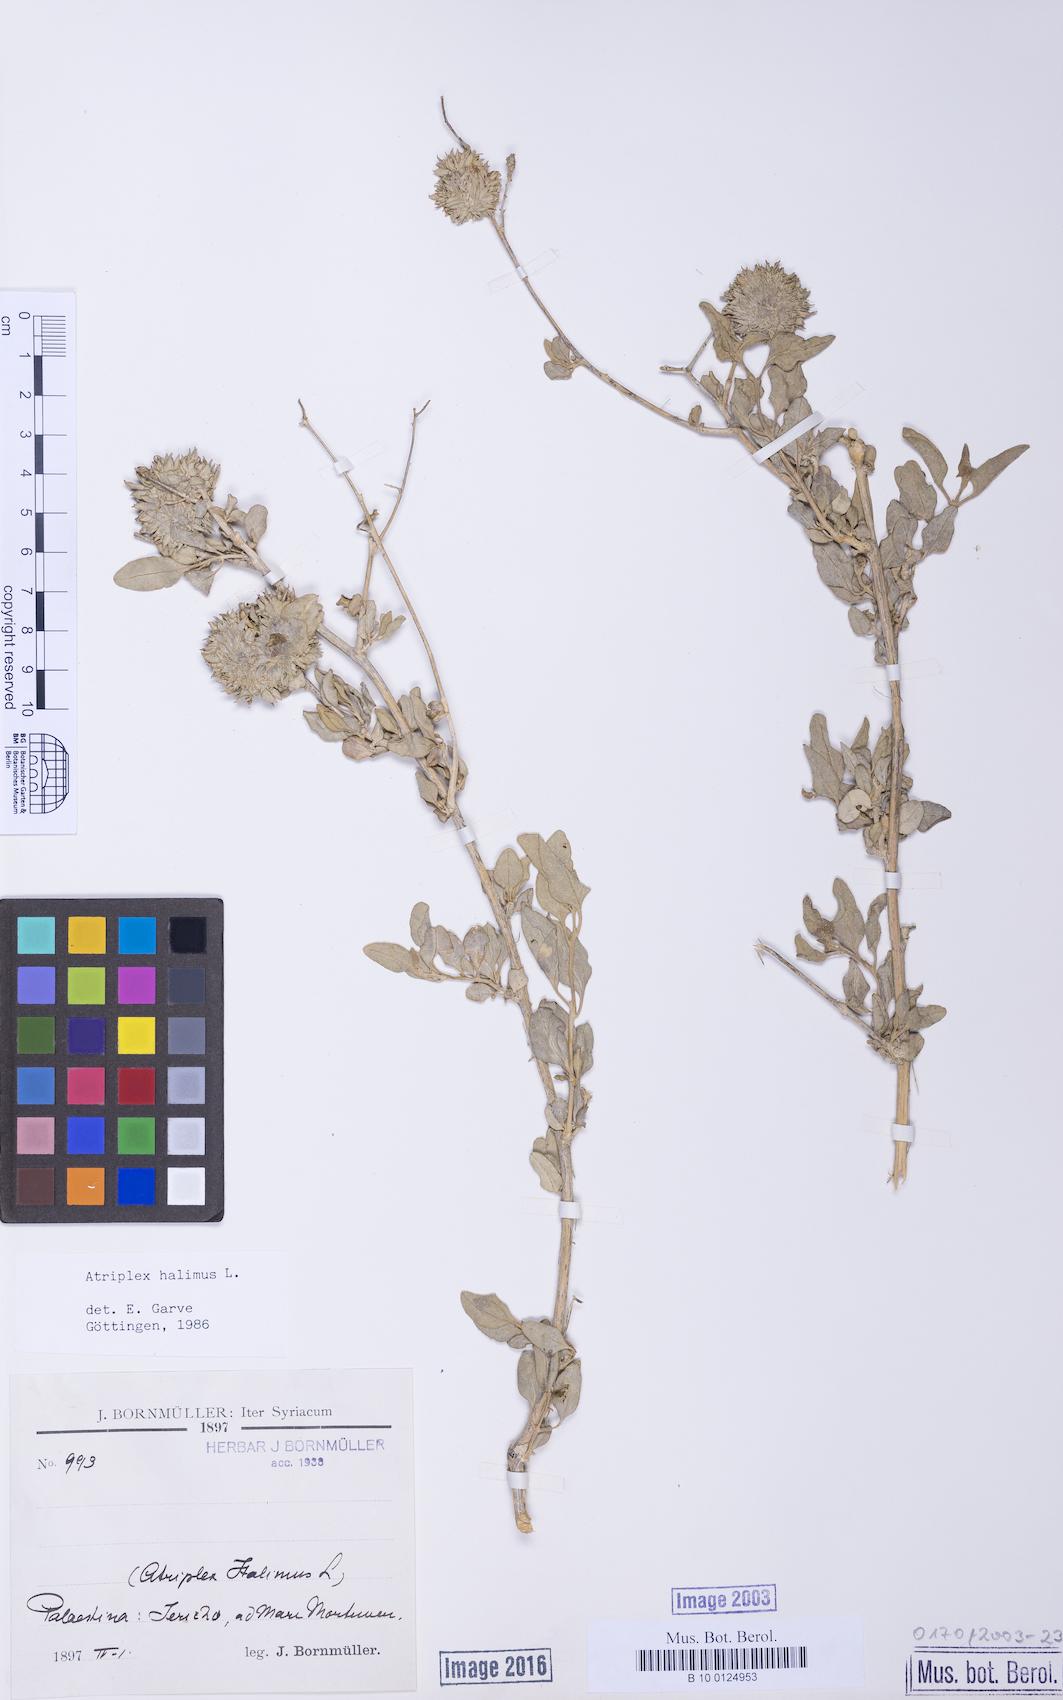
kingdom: Plantae
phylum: Tracheophyta
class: Magnoliopsida
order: Caryophyllales
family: Amaranthaceae
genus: Atriplex
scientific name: Atriplex halimus
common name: Shrubby orache
